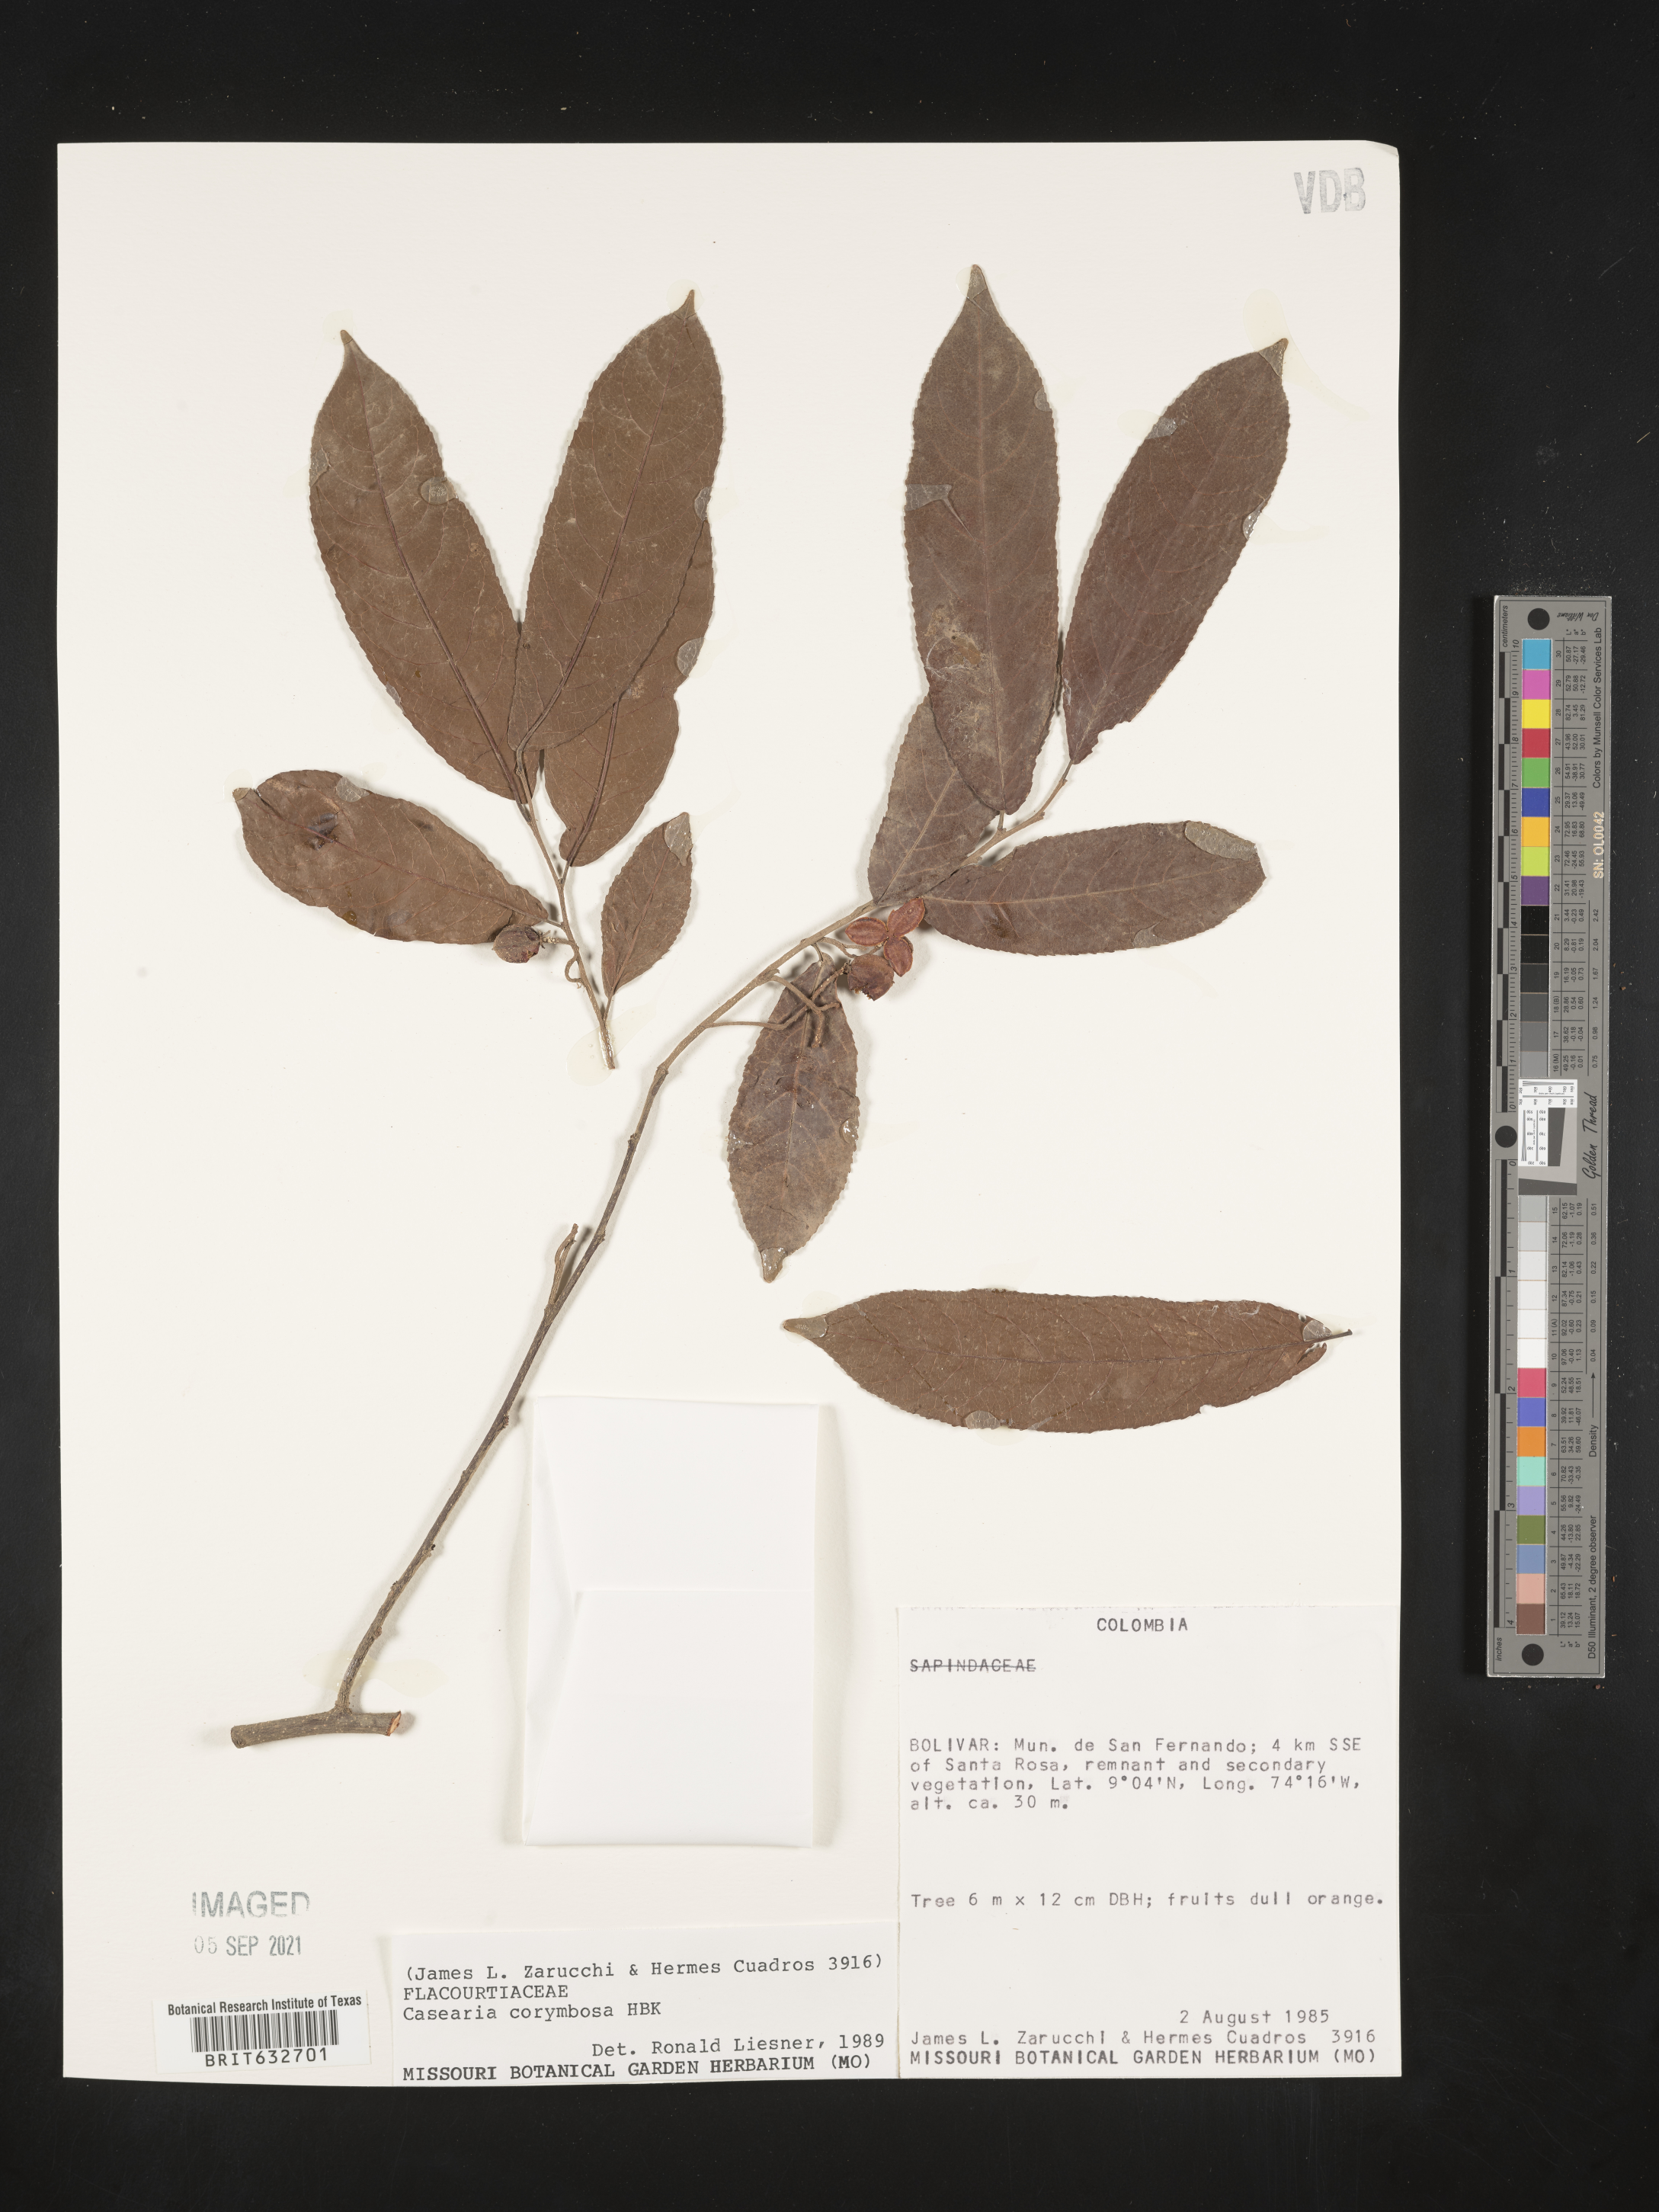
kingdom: Plantae
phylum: Tracheophyta
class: Magnoliopsida
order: Malpighiales
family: Salicaceae
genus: Casearia
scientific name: Casearia
